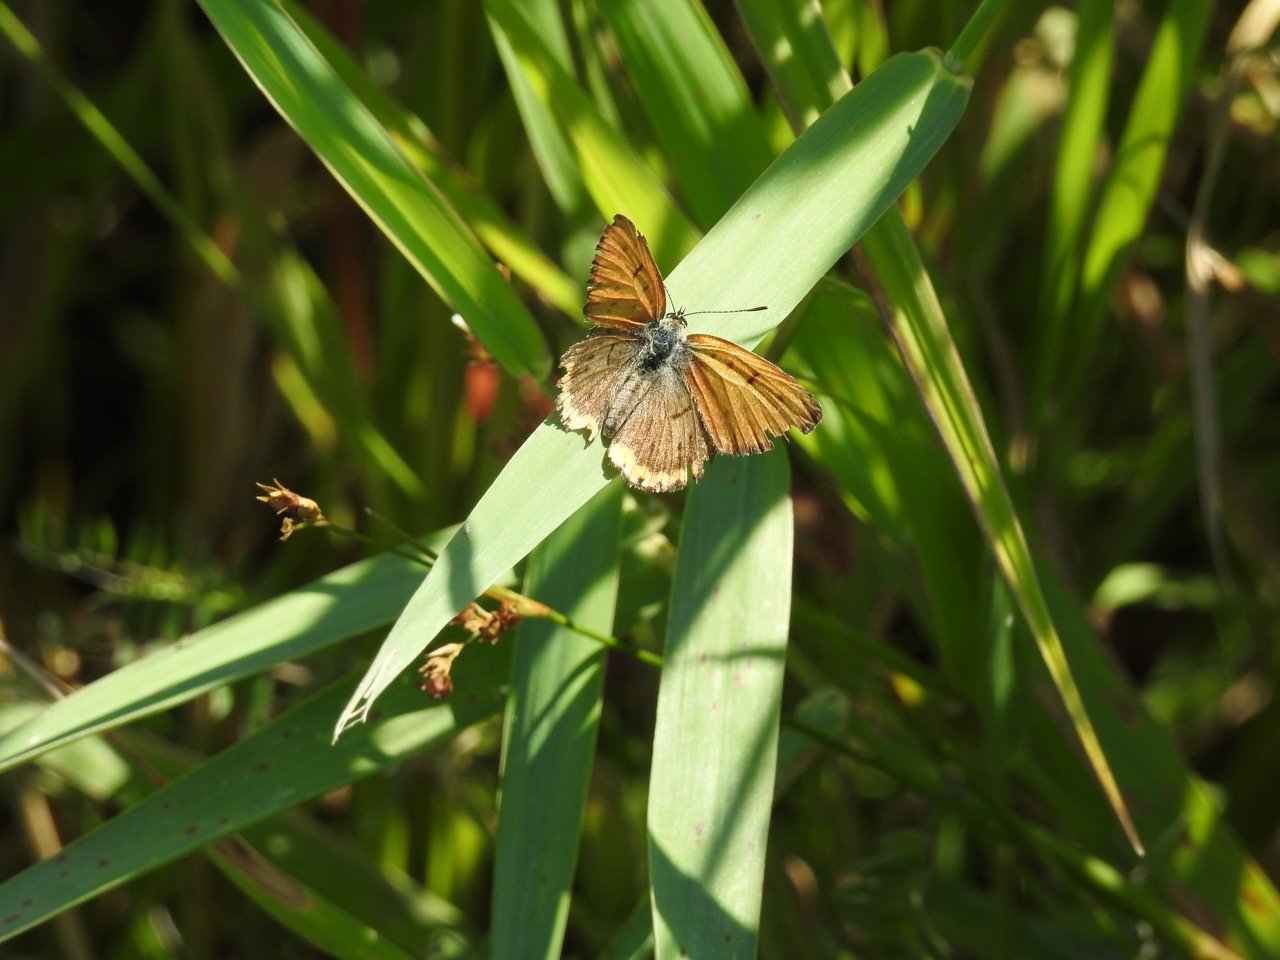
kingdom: Animalia
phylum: Arthropoda
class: Insecta
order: Lepidoptera
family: Sesiidae
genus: Sesia
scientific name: Sesia Lycaena hyllus
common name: Bronze Copper
